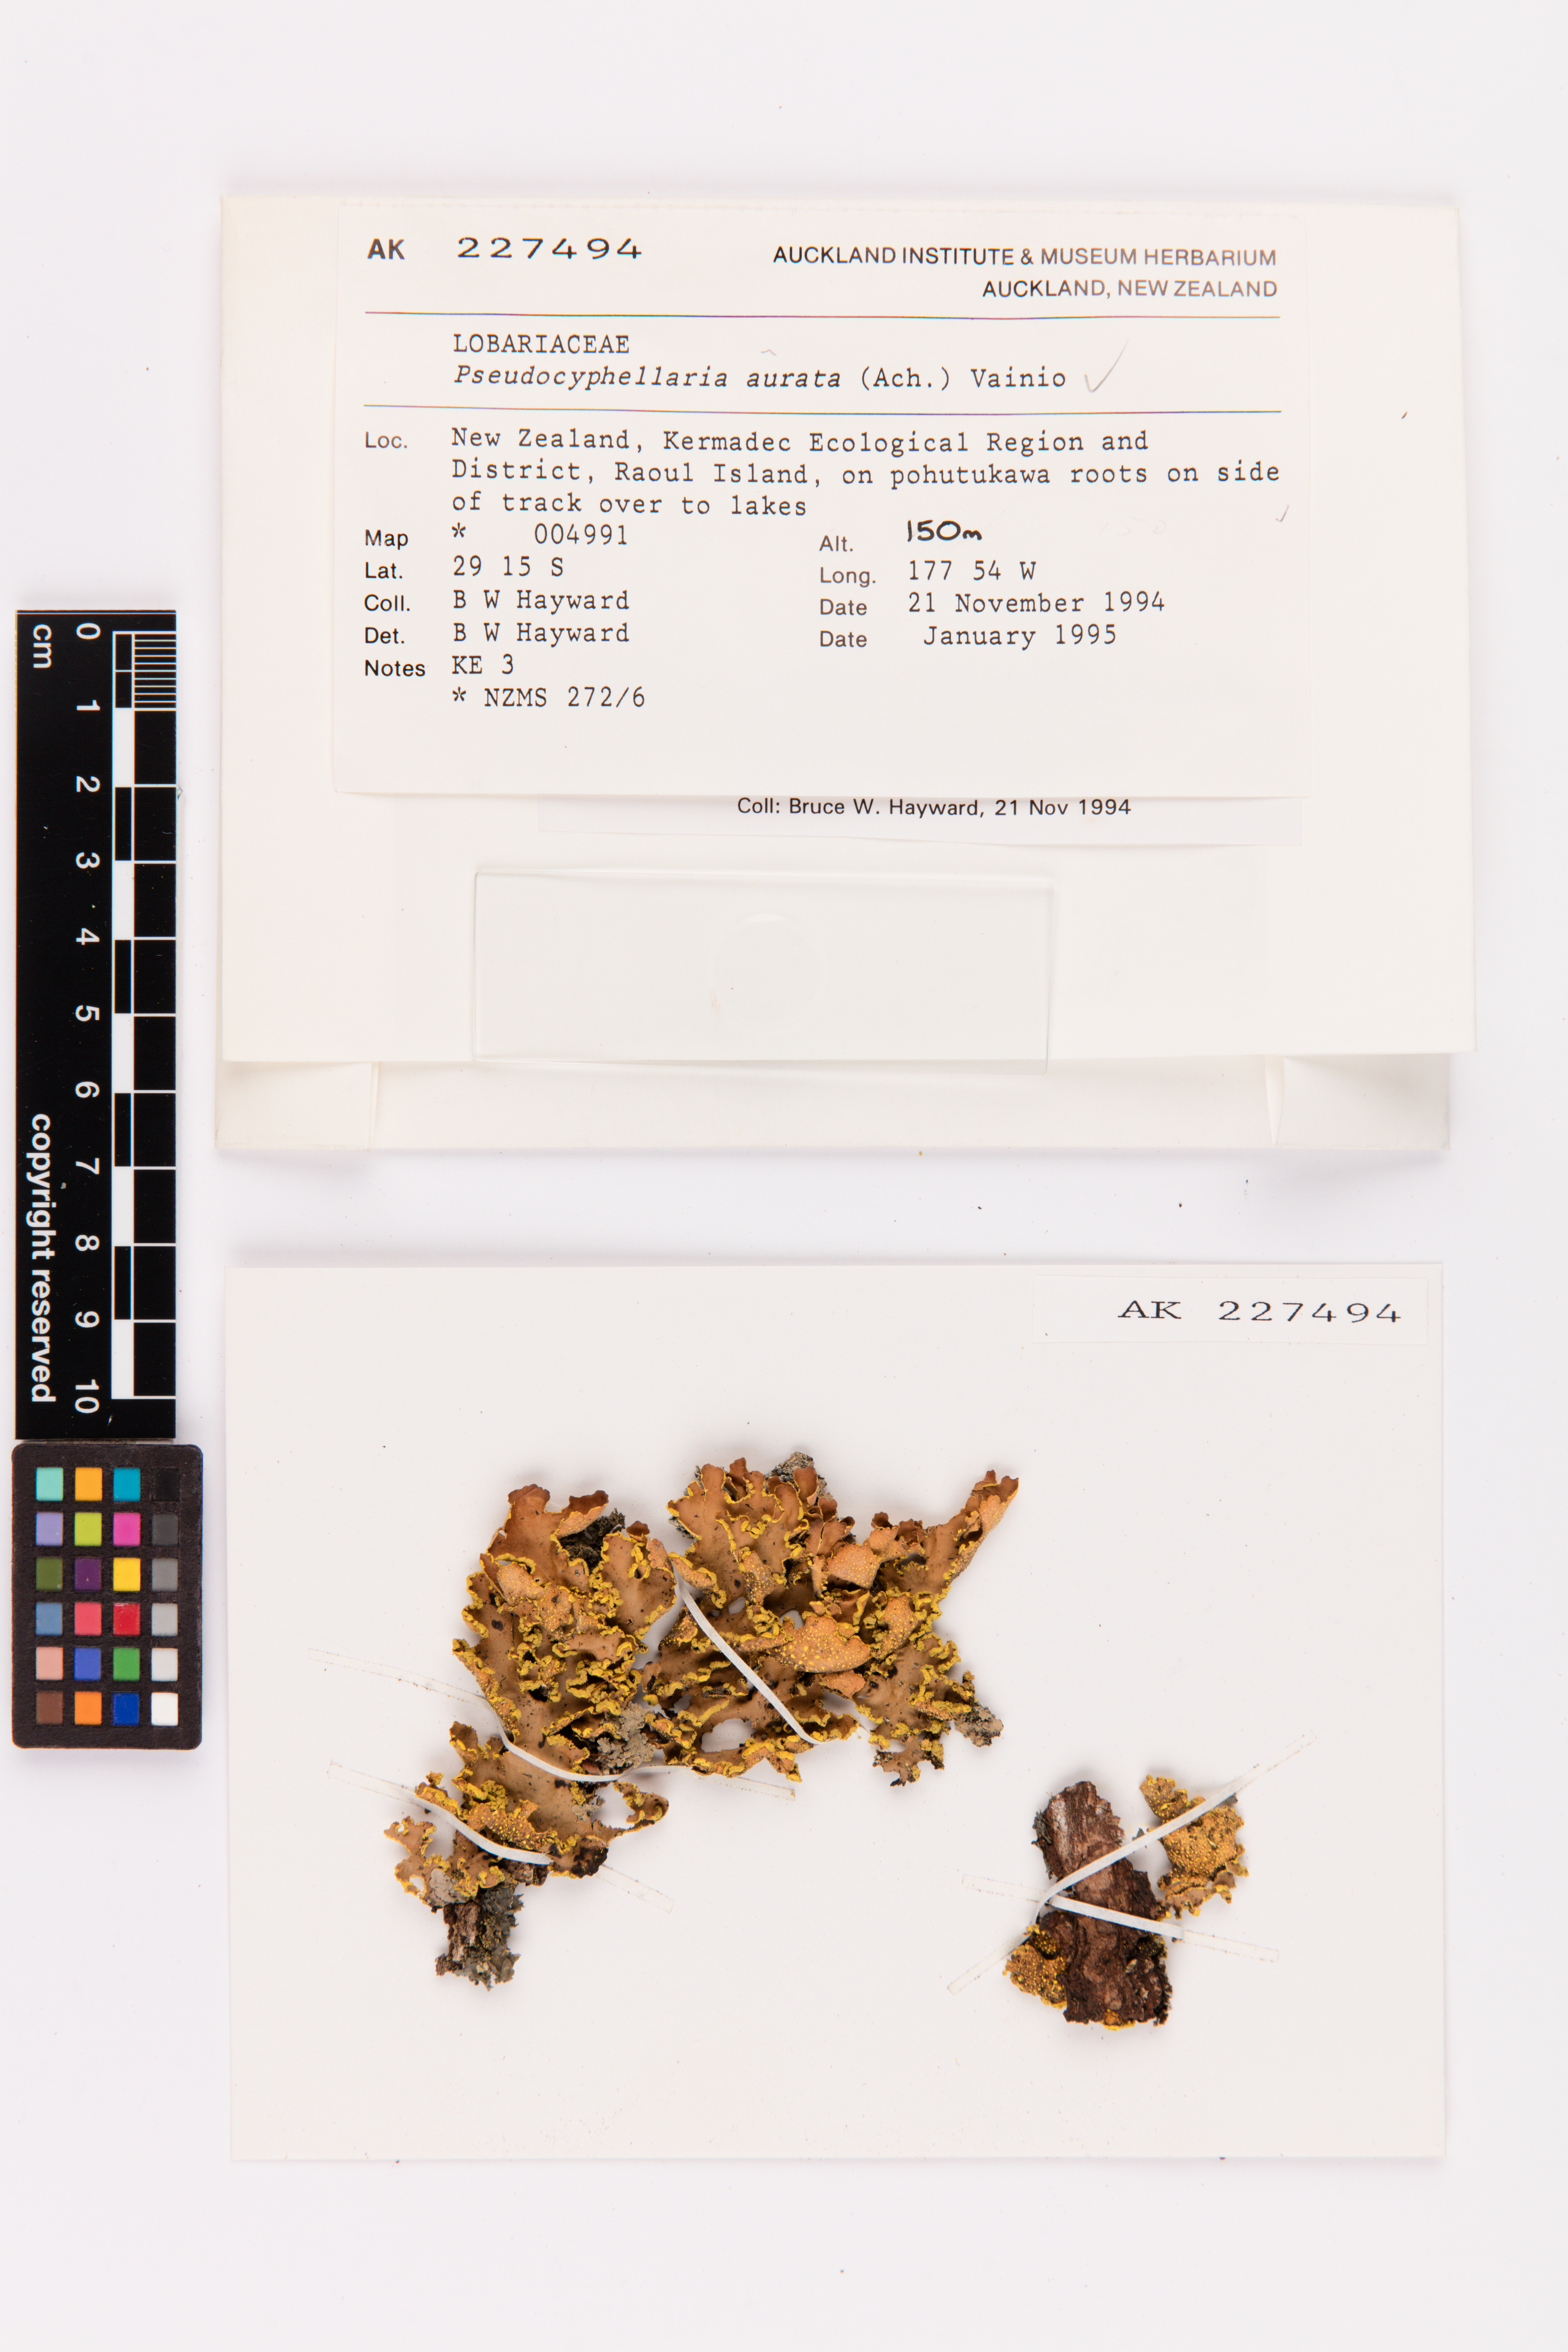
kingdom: Fungi
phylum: Ascomycota
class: Lecanoromycetes
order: Peltigerales
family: Lobariaceae
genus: Pseudocyphellaria
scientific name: Pseudocyphellaria aurata
